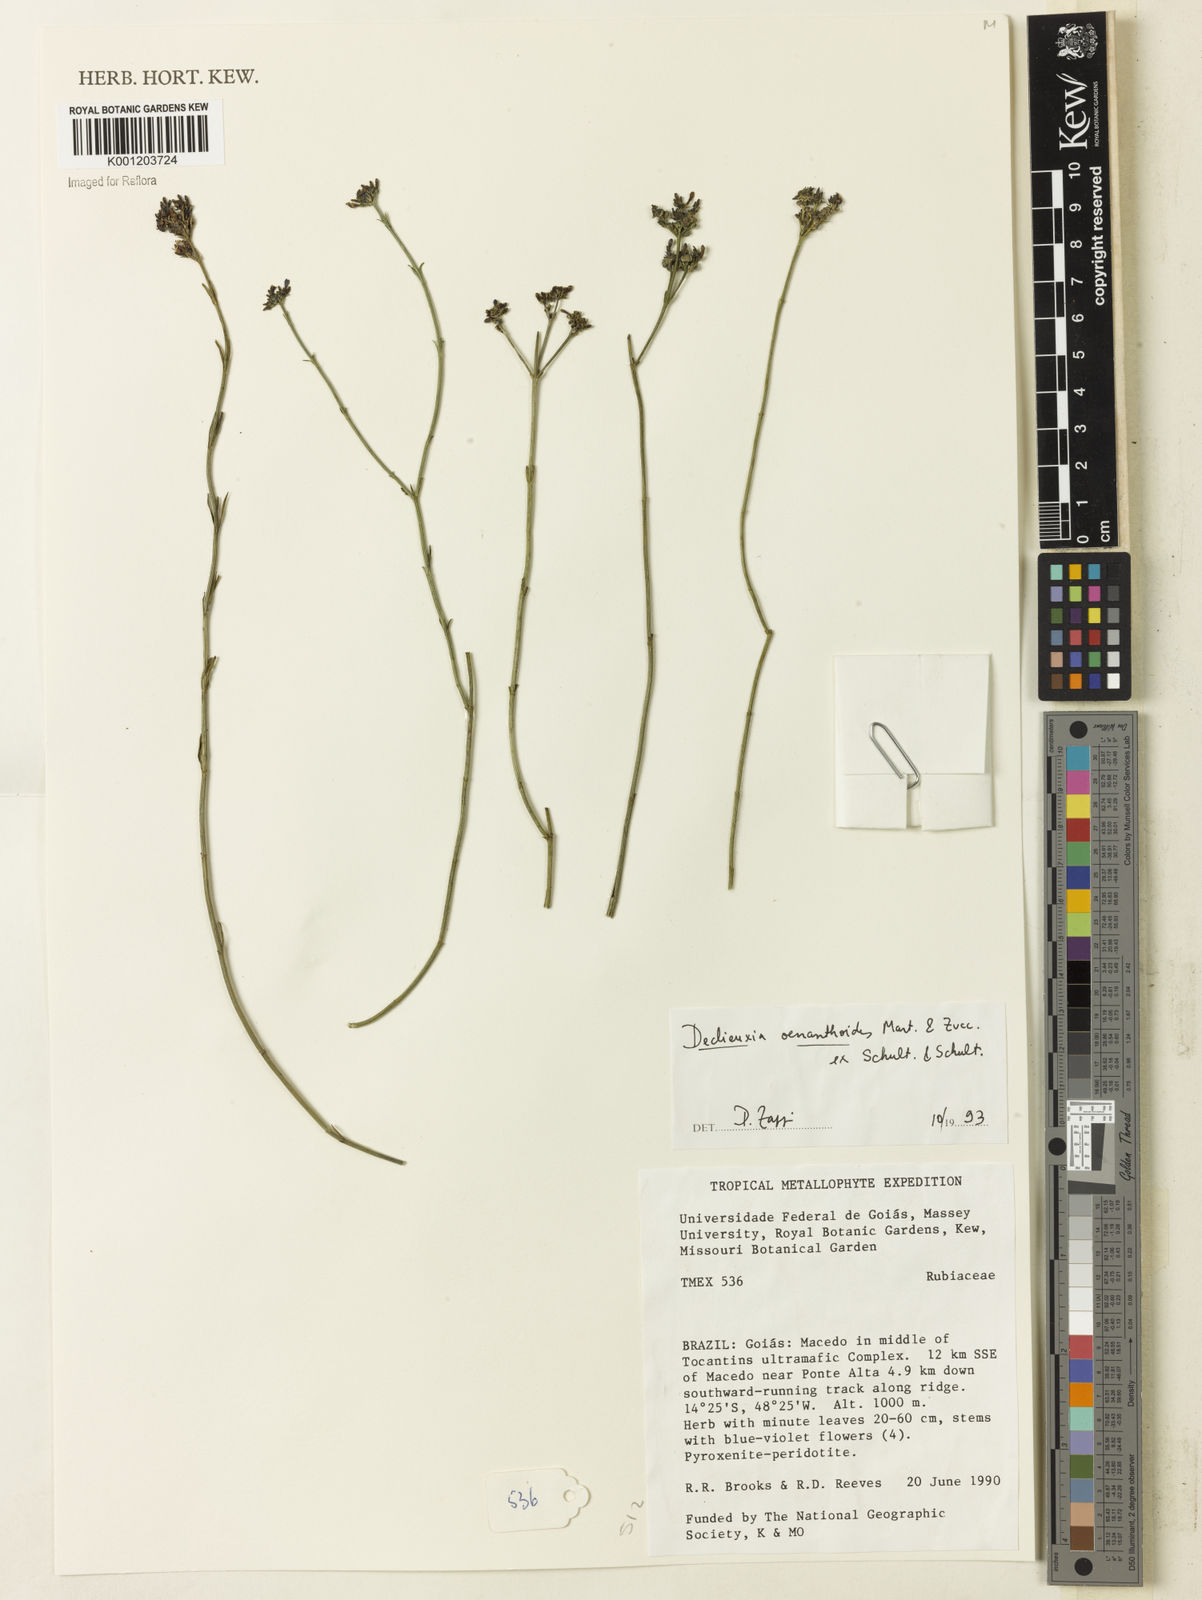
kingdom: Plantae
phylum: Tracheophyta
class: Magnoliopsida
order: Gentianales
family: Rubiaceae
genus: Declieuxia
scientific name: Declieuxia
